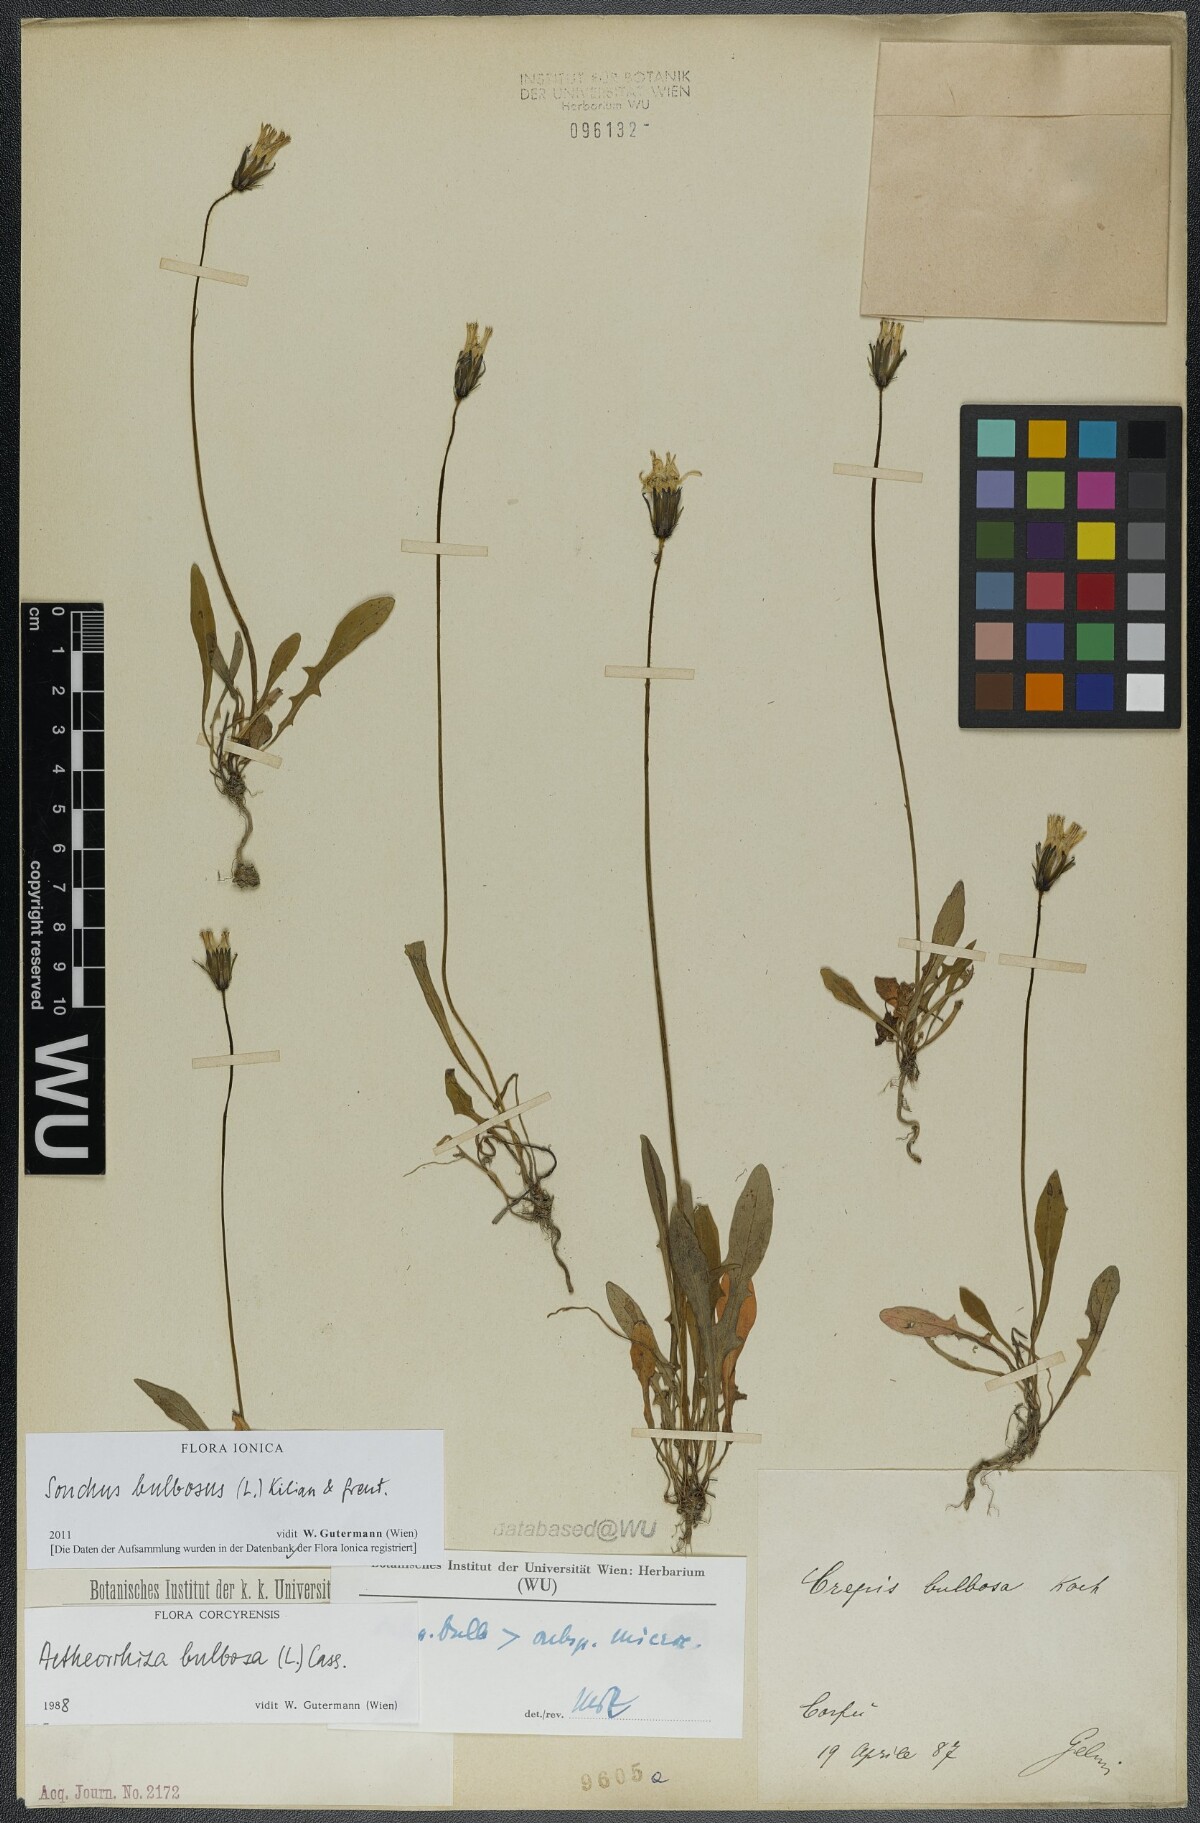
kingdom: Plantae
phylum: Tracheophyta
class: Magnoliopsida
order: Asterales
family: Asteraceae
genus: Aetheorhiza
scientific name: Aetheorhiza bulbosa
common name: Tuberous hawk's-beard
